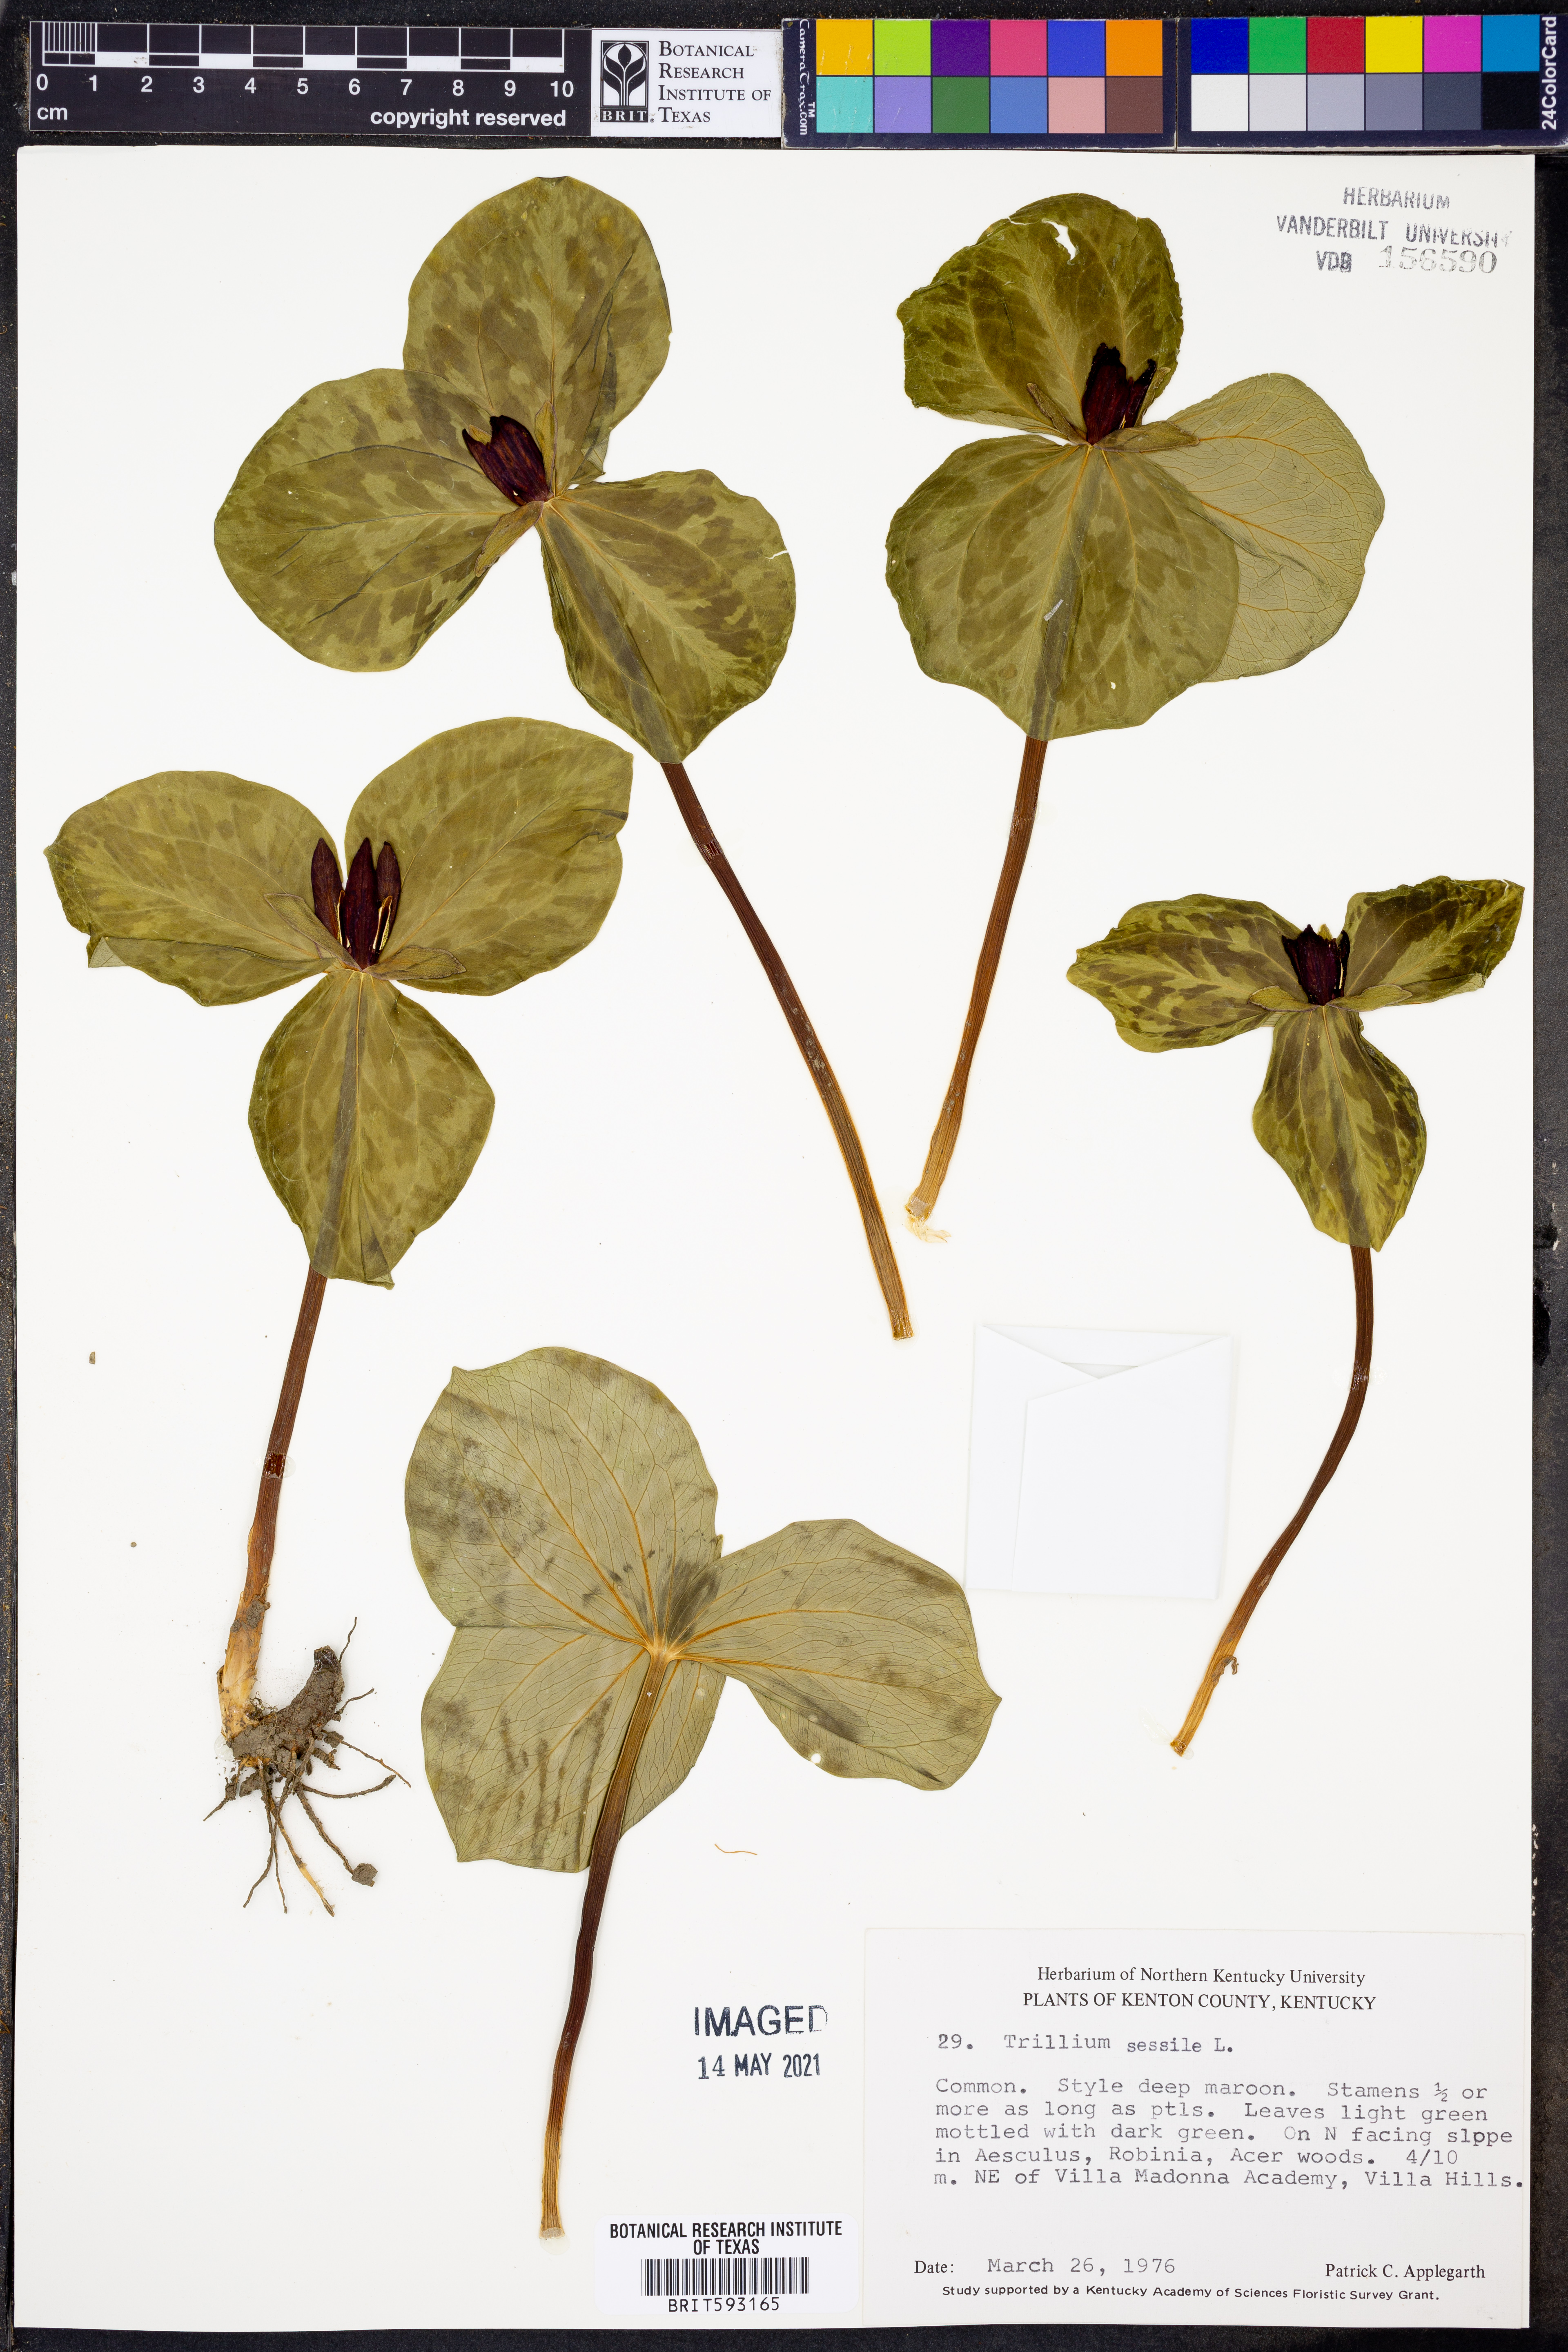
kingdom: Plantae
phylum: Tracheophyta
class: Liliopsida
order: Liliales
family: Melanthiaceae
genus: Trillium
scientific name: Trillium sessile
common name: Sessile trillium
